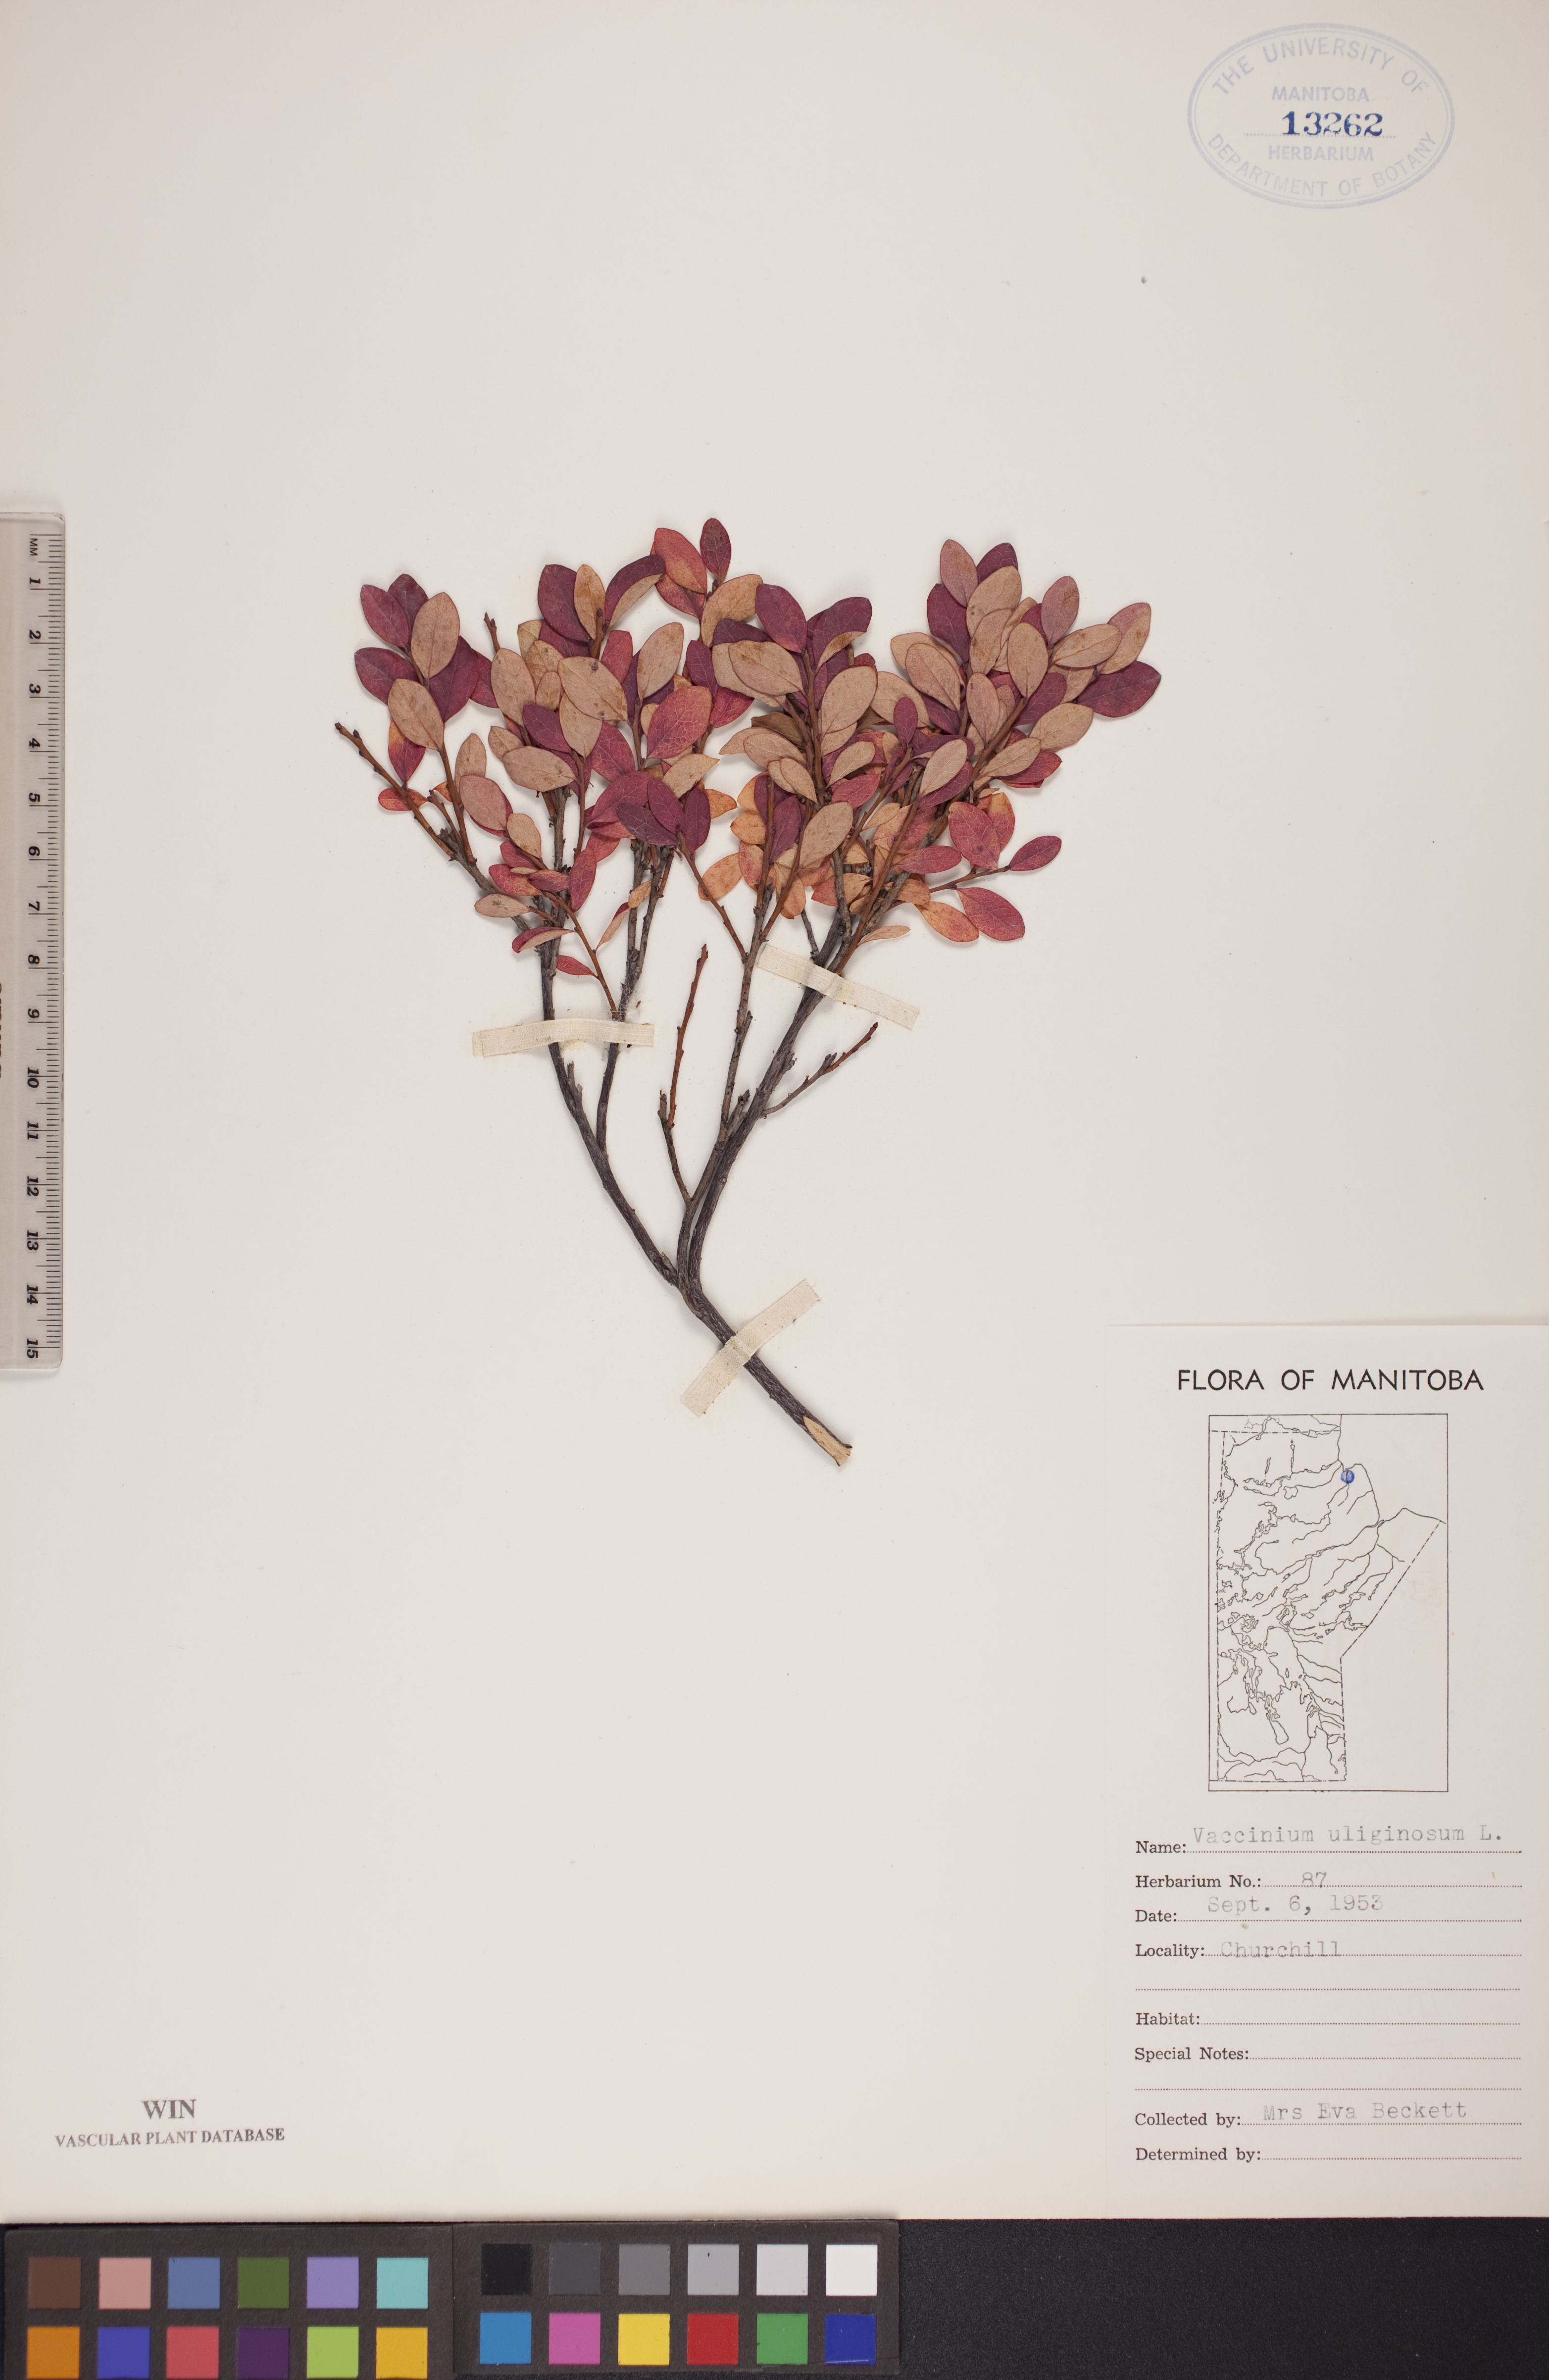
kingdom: Plantae
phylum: Tracheophyta
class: Magnoliopsida
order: Ericales
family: Ericaceae
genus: Vaccinium
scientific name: Vaccinium uliginosum
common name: Bog bilberry
